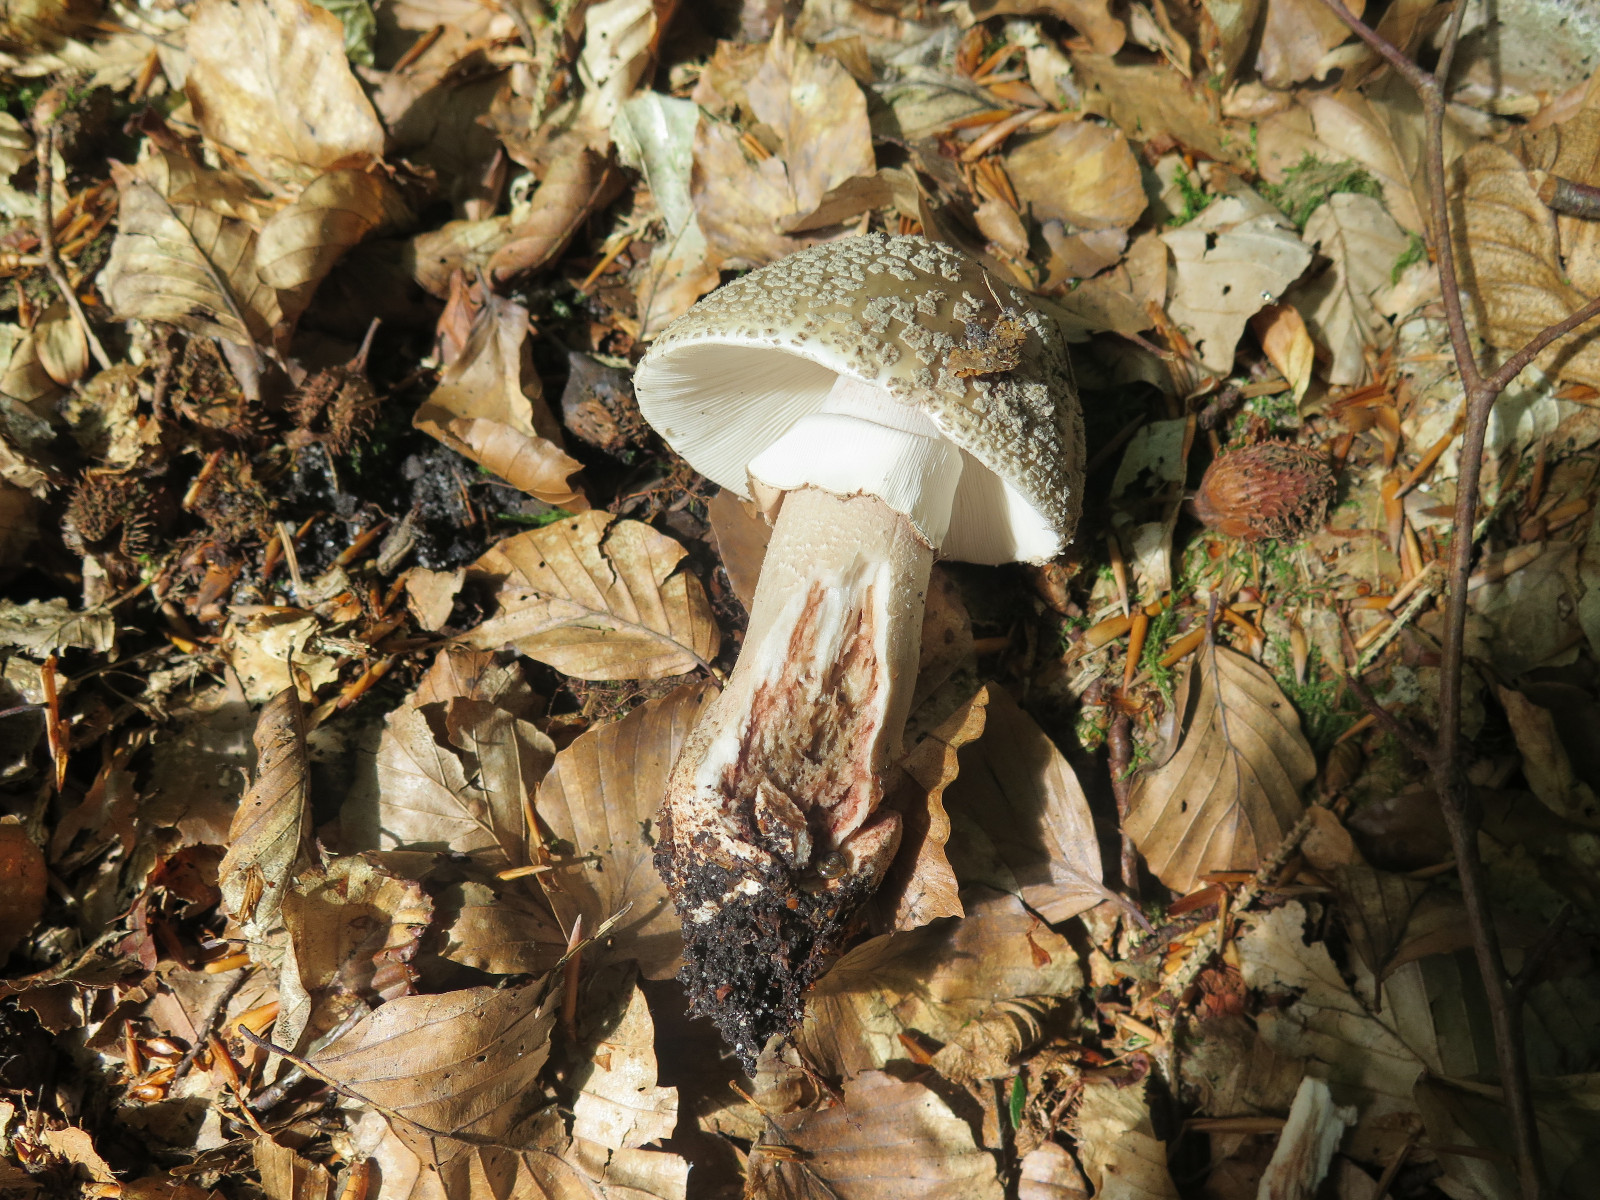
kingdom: Fungi
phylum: Basidiomycota
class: Agaricomycetes
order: Agaricales
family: Amanitaceae
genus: Amanita
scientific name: Amanita rubescens
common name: rødmende fluesvamp
